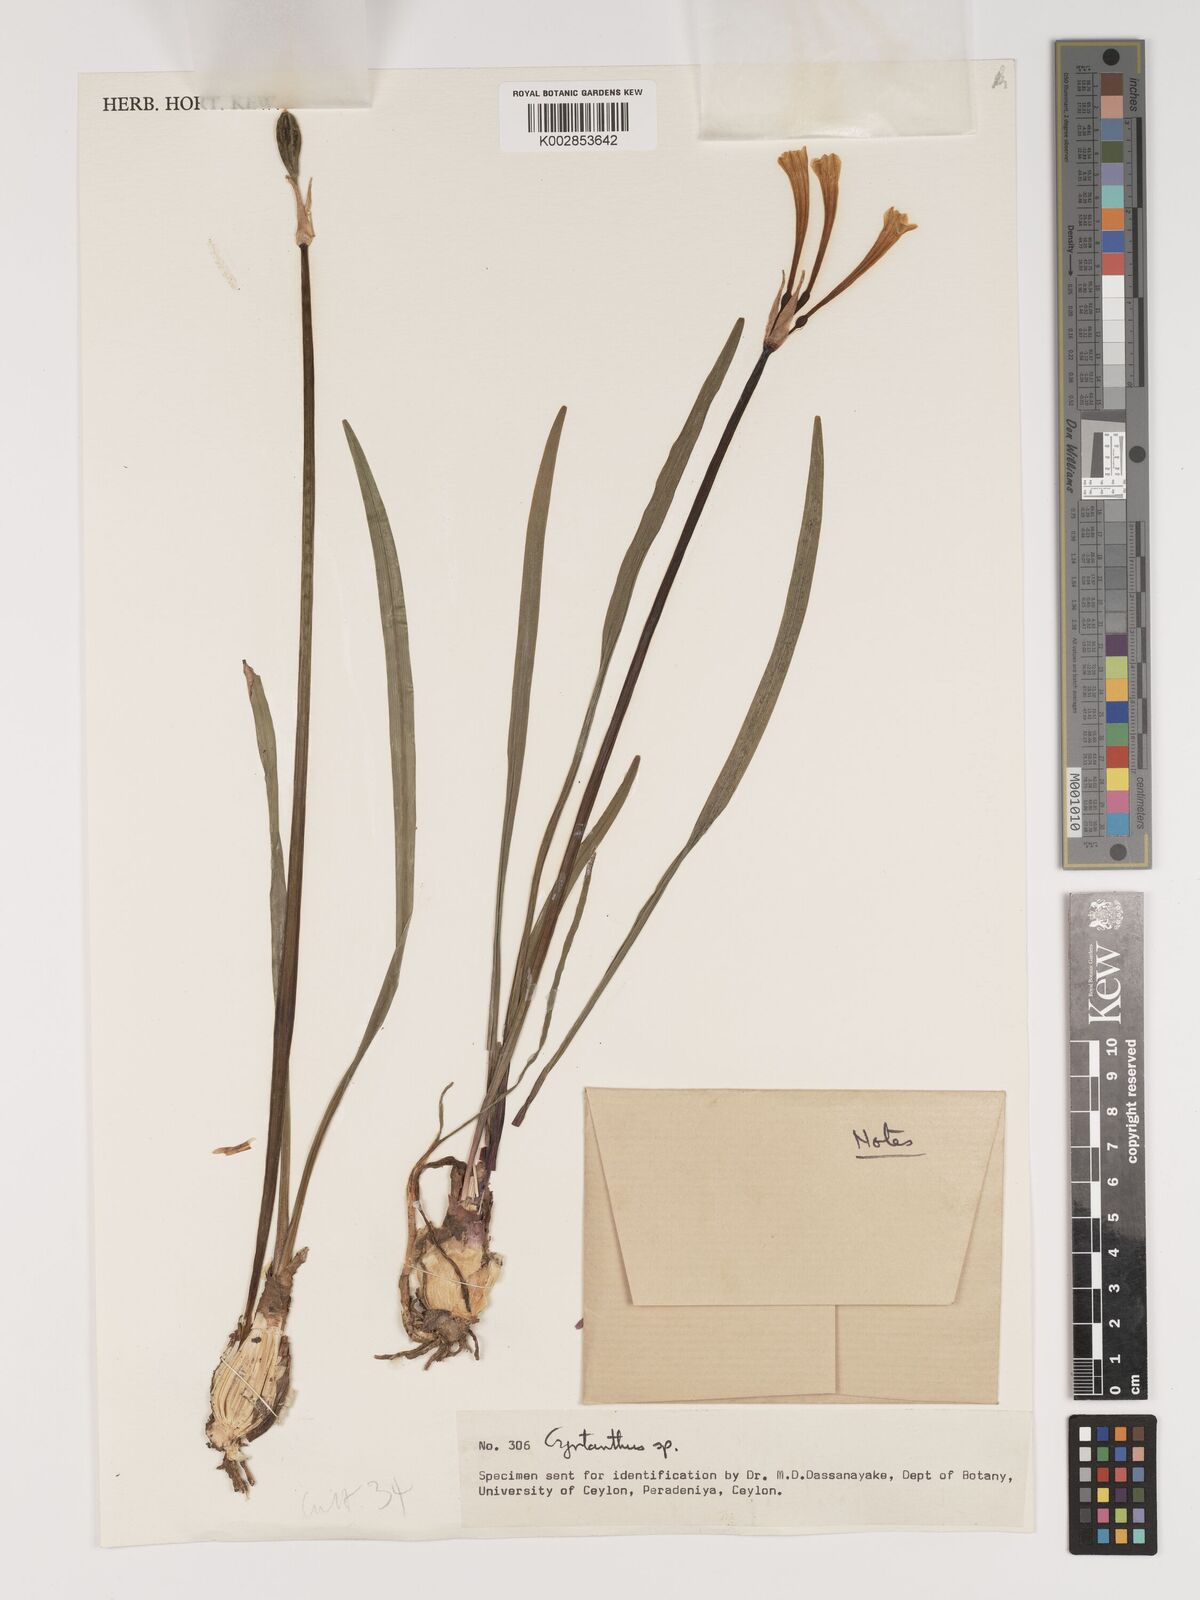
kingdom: Plantae
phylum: Tracheophyta
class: Liliopsida
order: Asparagales
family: Amaryllidaceae
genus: Cyrtanthus
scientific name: Cyrtanthus
